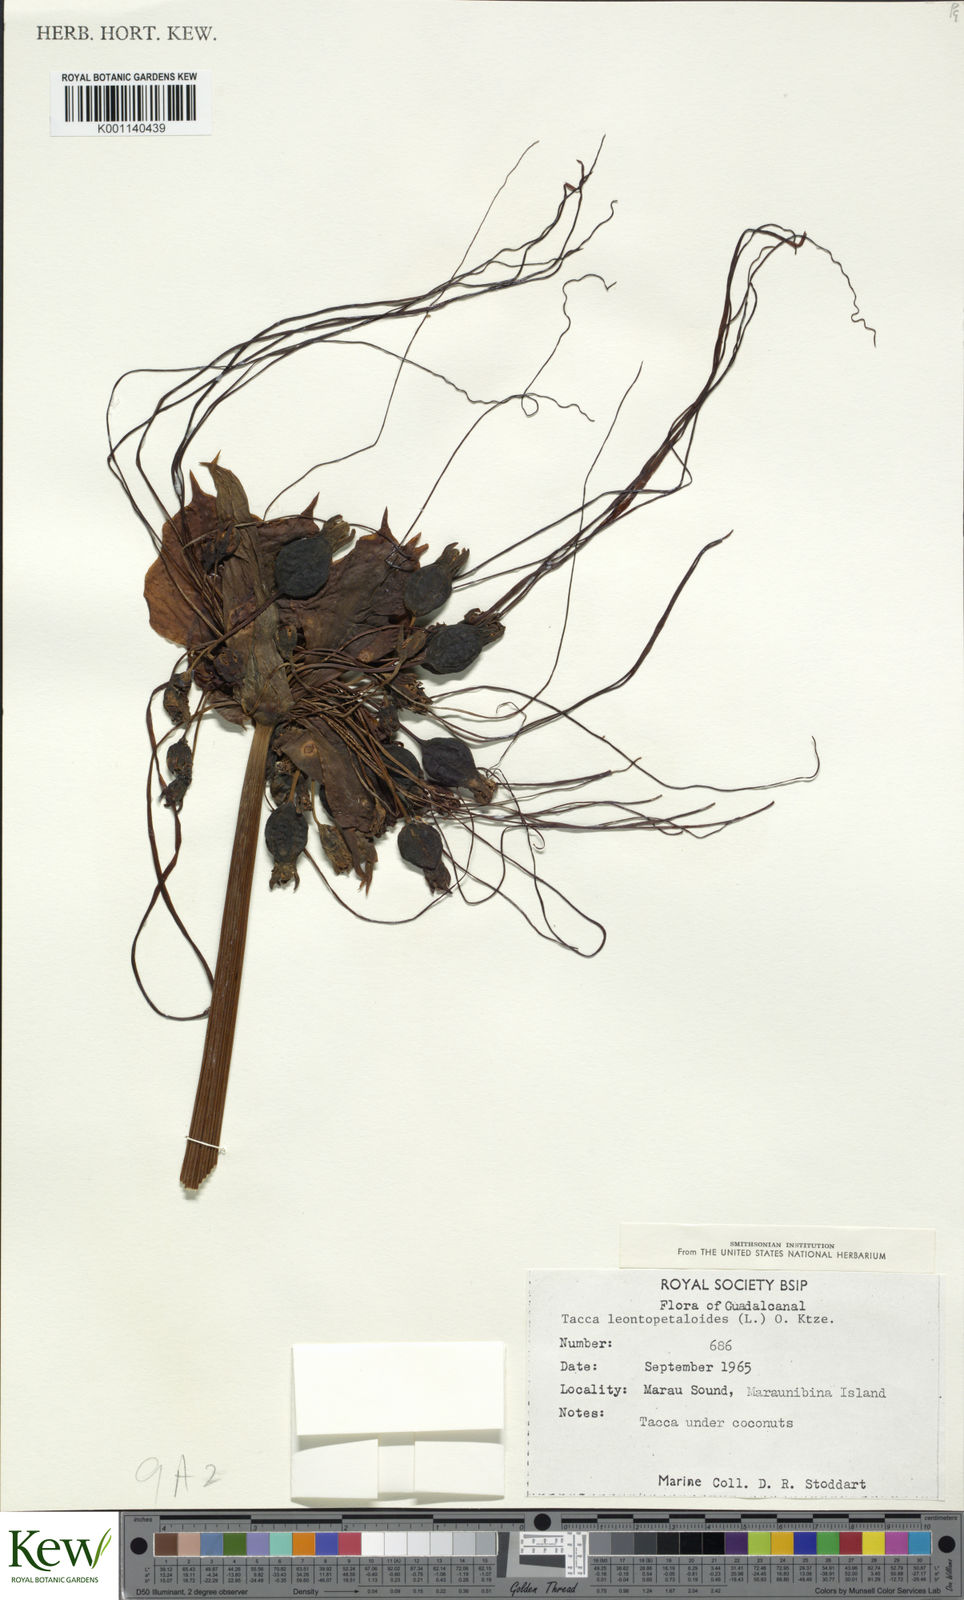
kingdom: Plantae
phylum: Tracheophyta
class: Liliopsida
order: Dioscoreales
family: Dioscoreaceae
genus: Tacca
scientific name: Tacca leontopetaloides
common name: Arrowroot
